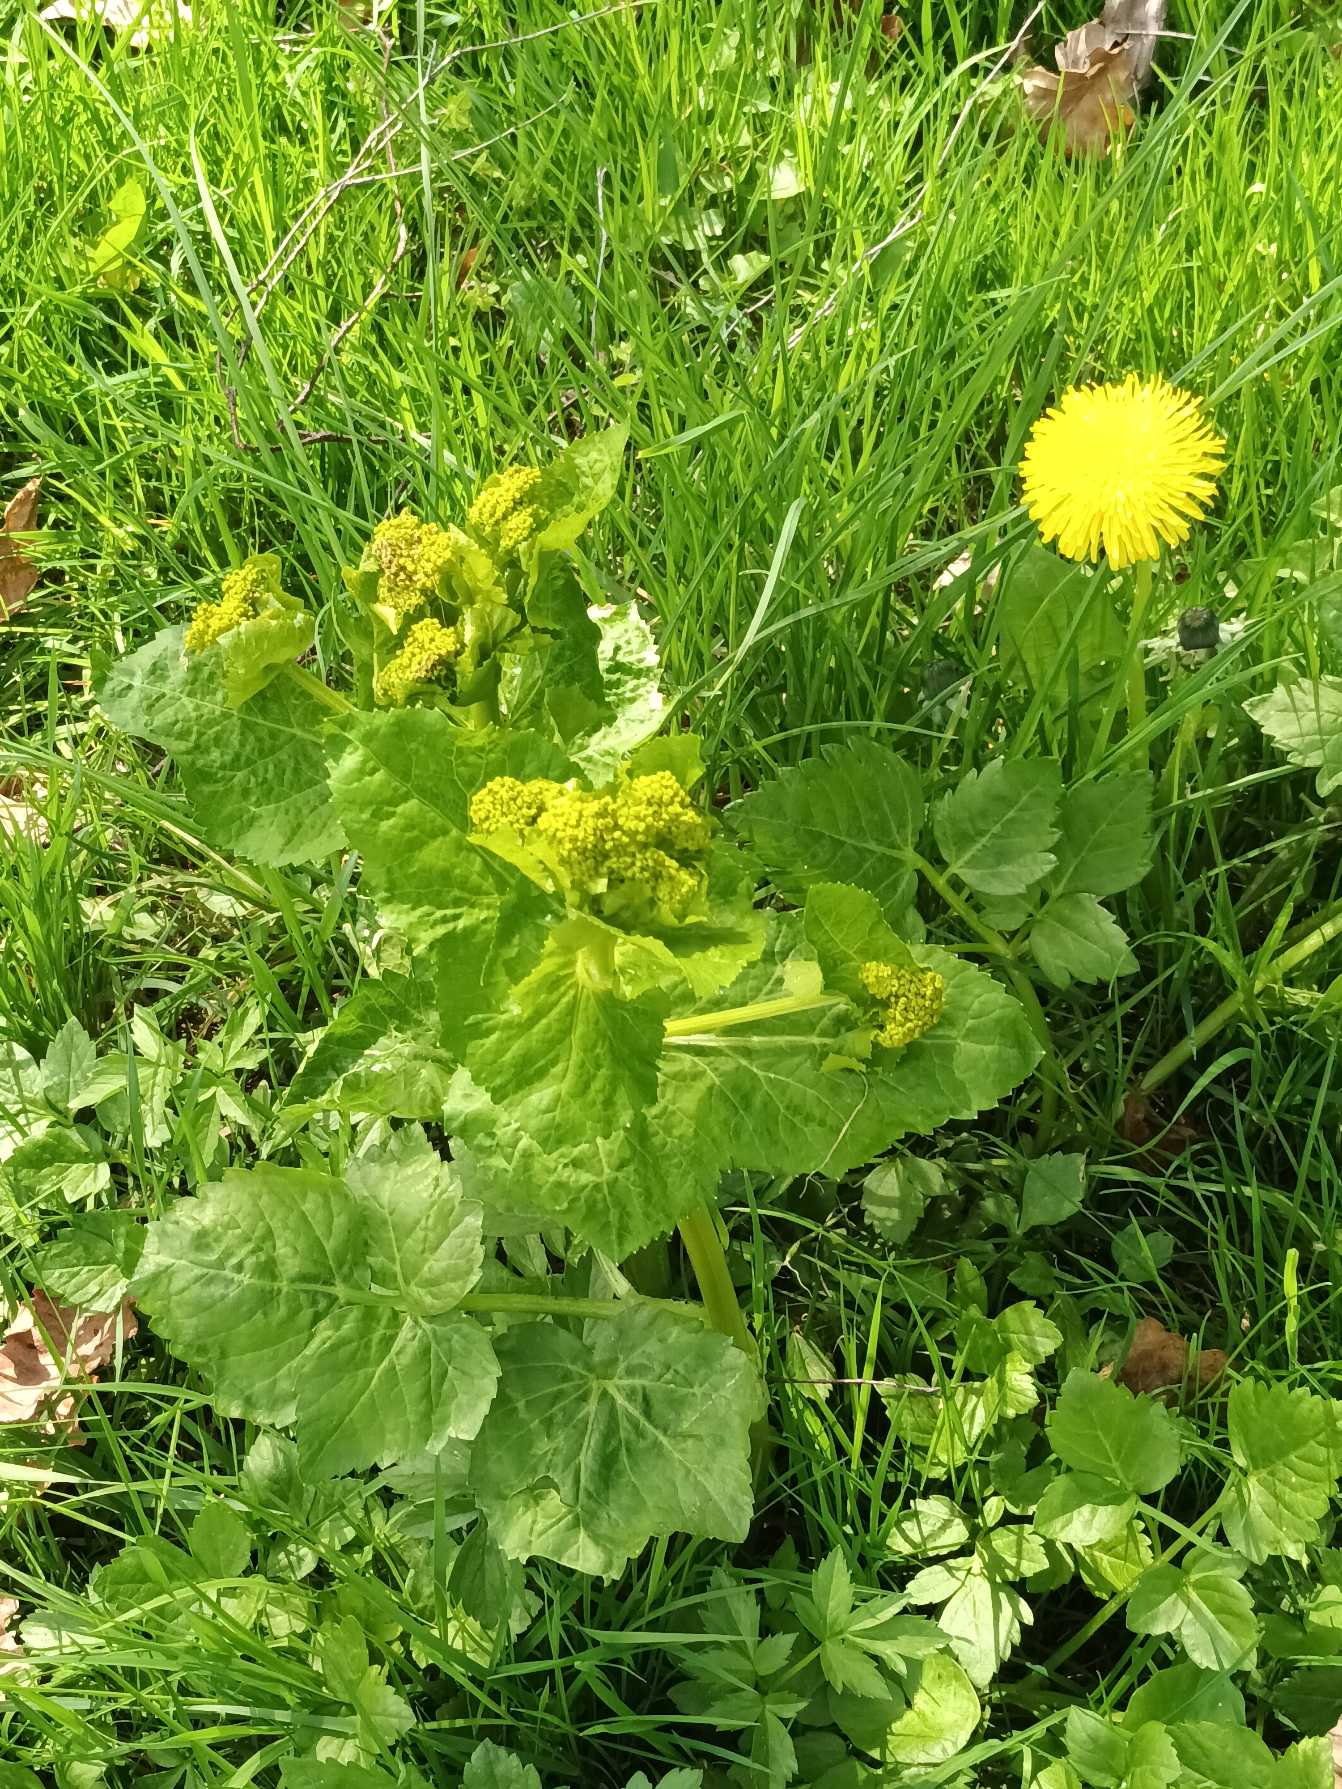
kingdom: Plantae
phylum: Tracheophyta
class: Magnoliopsida
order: Apiales
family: Apiaceae
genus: Smyrnium
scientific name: Smyrnium perfoliatum
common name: Lundgylden
